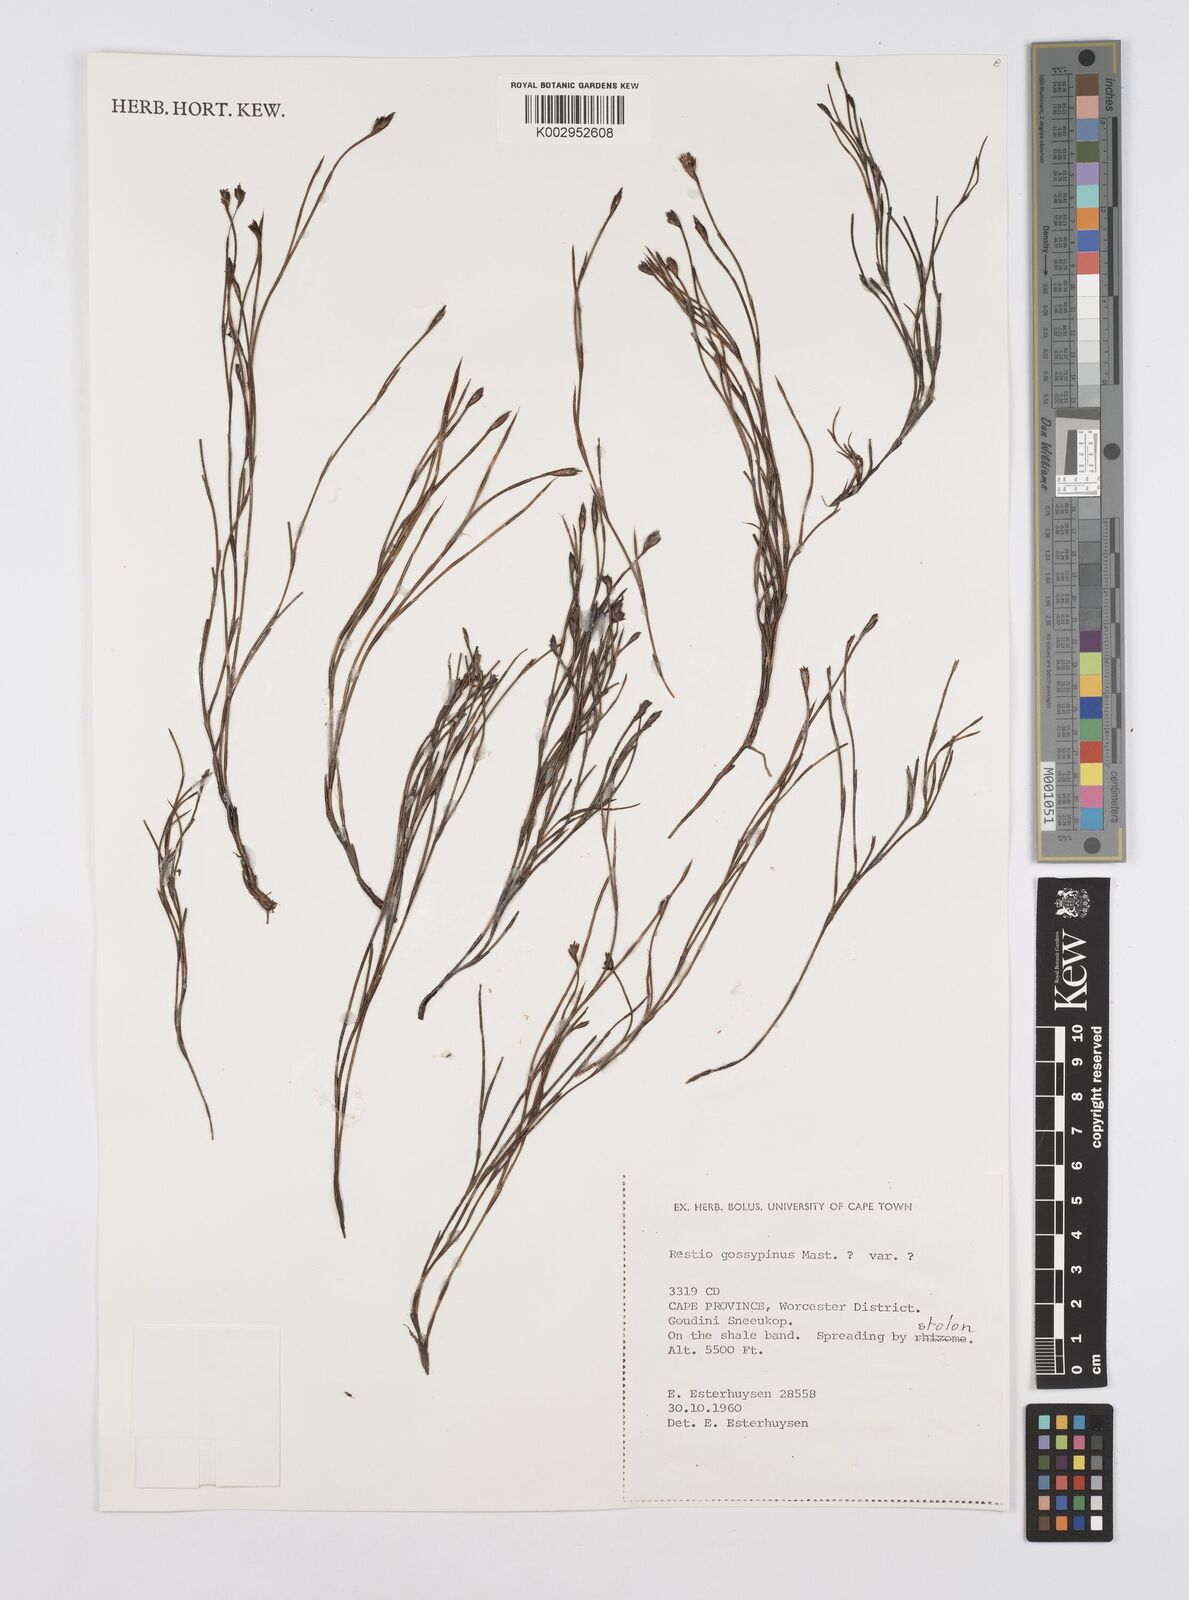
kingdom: Plantae
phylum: Tracheophyta
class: Liliopsida
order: Poales
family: Restionaceae
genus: Restio
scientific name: Restio gossypinus
